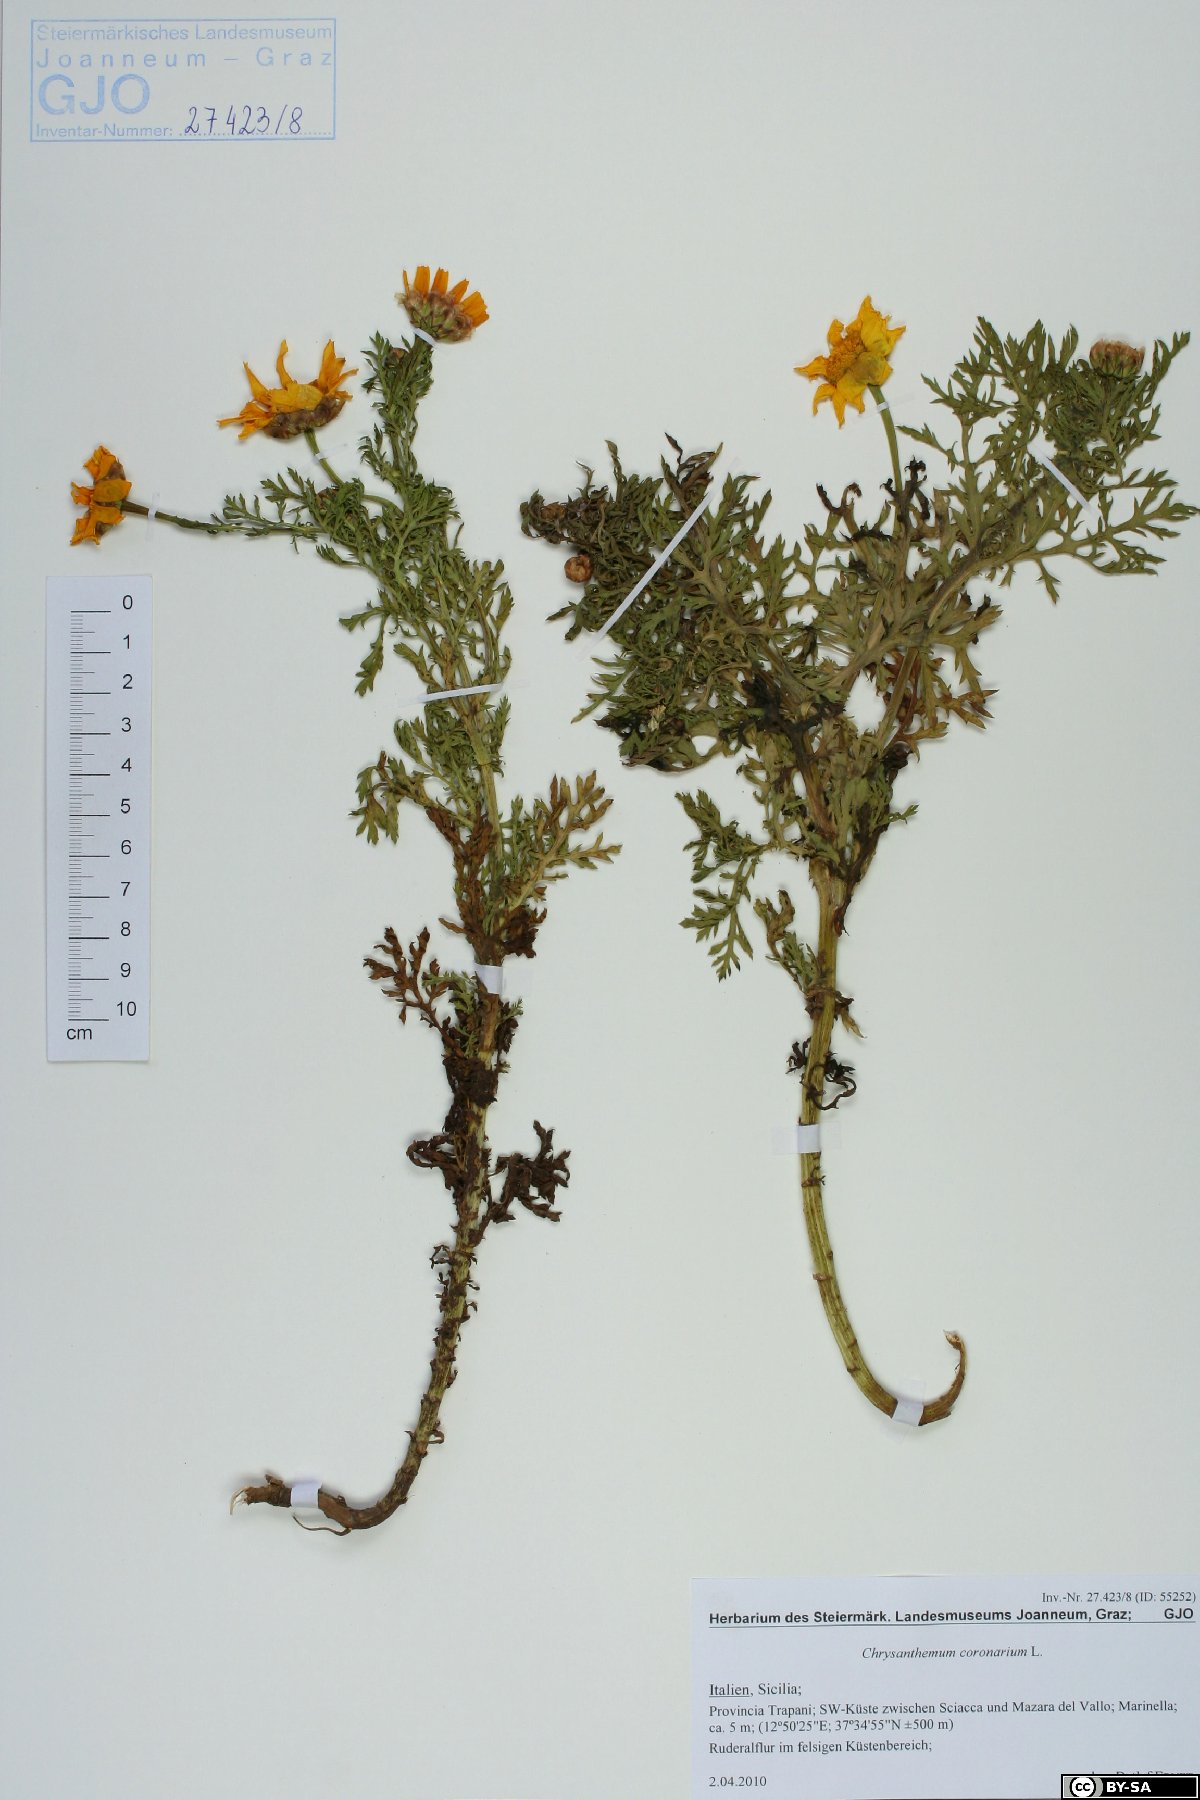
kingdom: Plantae
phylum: Tracheophyta
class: Magnoliopsida
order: Asterales
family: Asteraceae
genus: Glebionis
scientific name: Glebionis coronaria
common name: Crowndaisy
